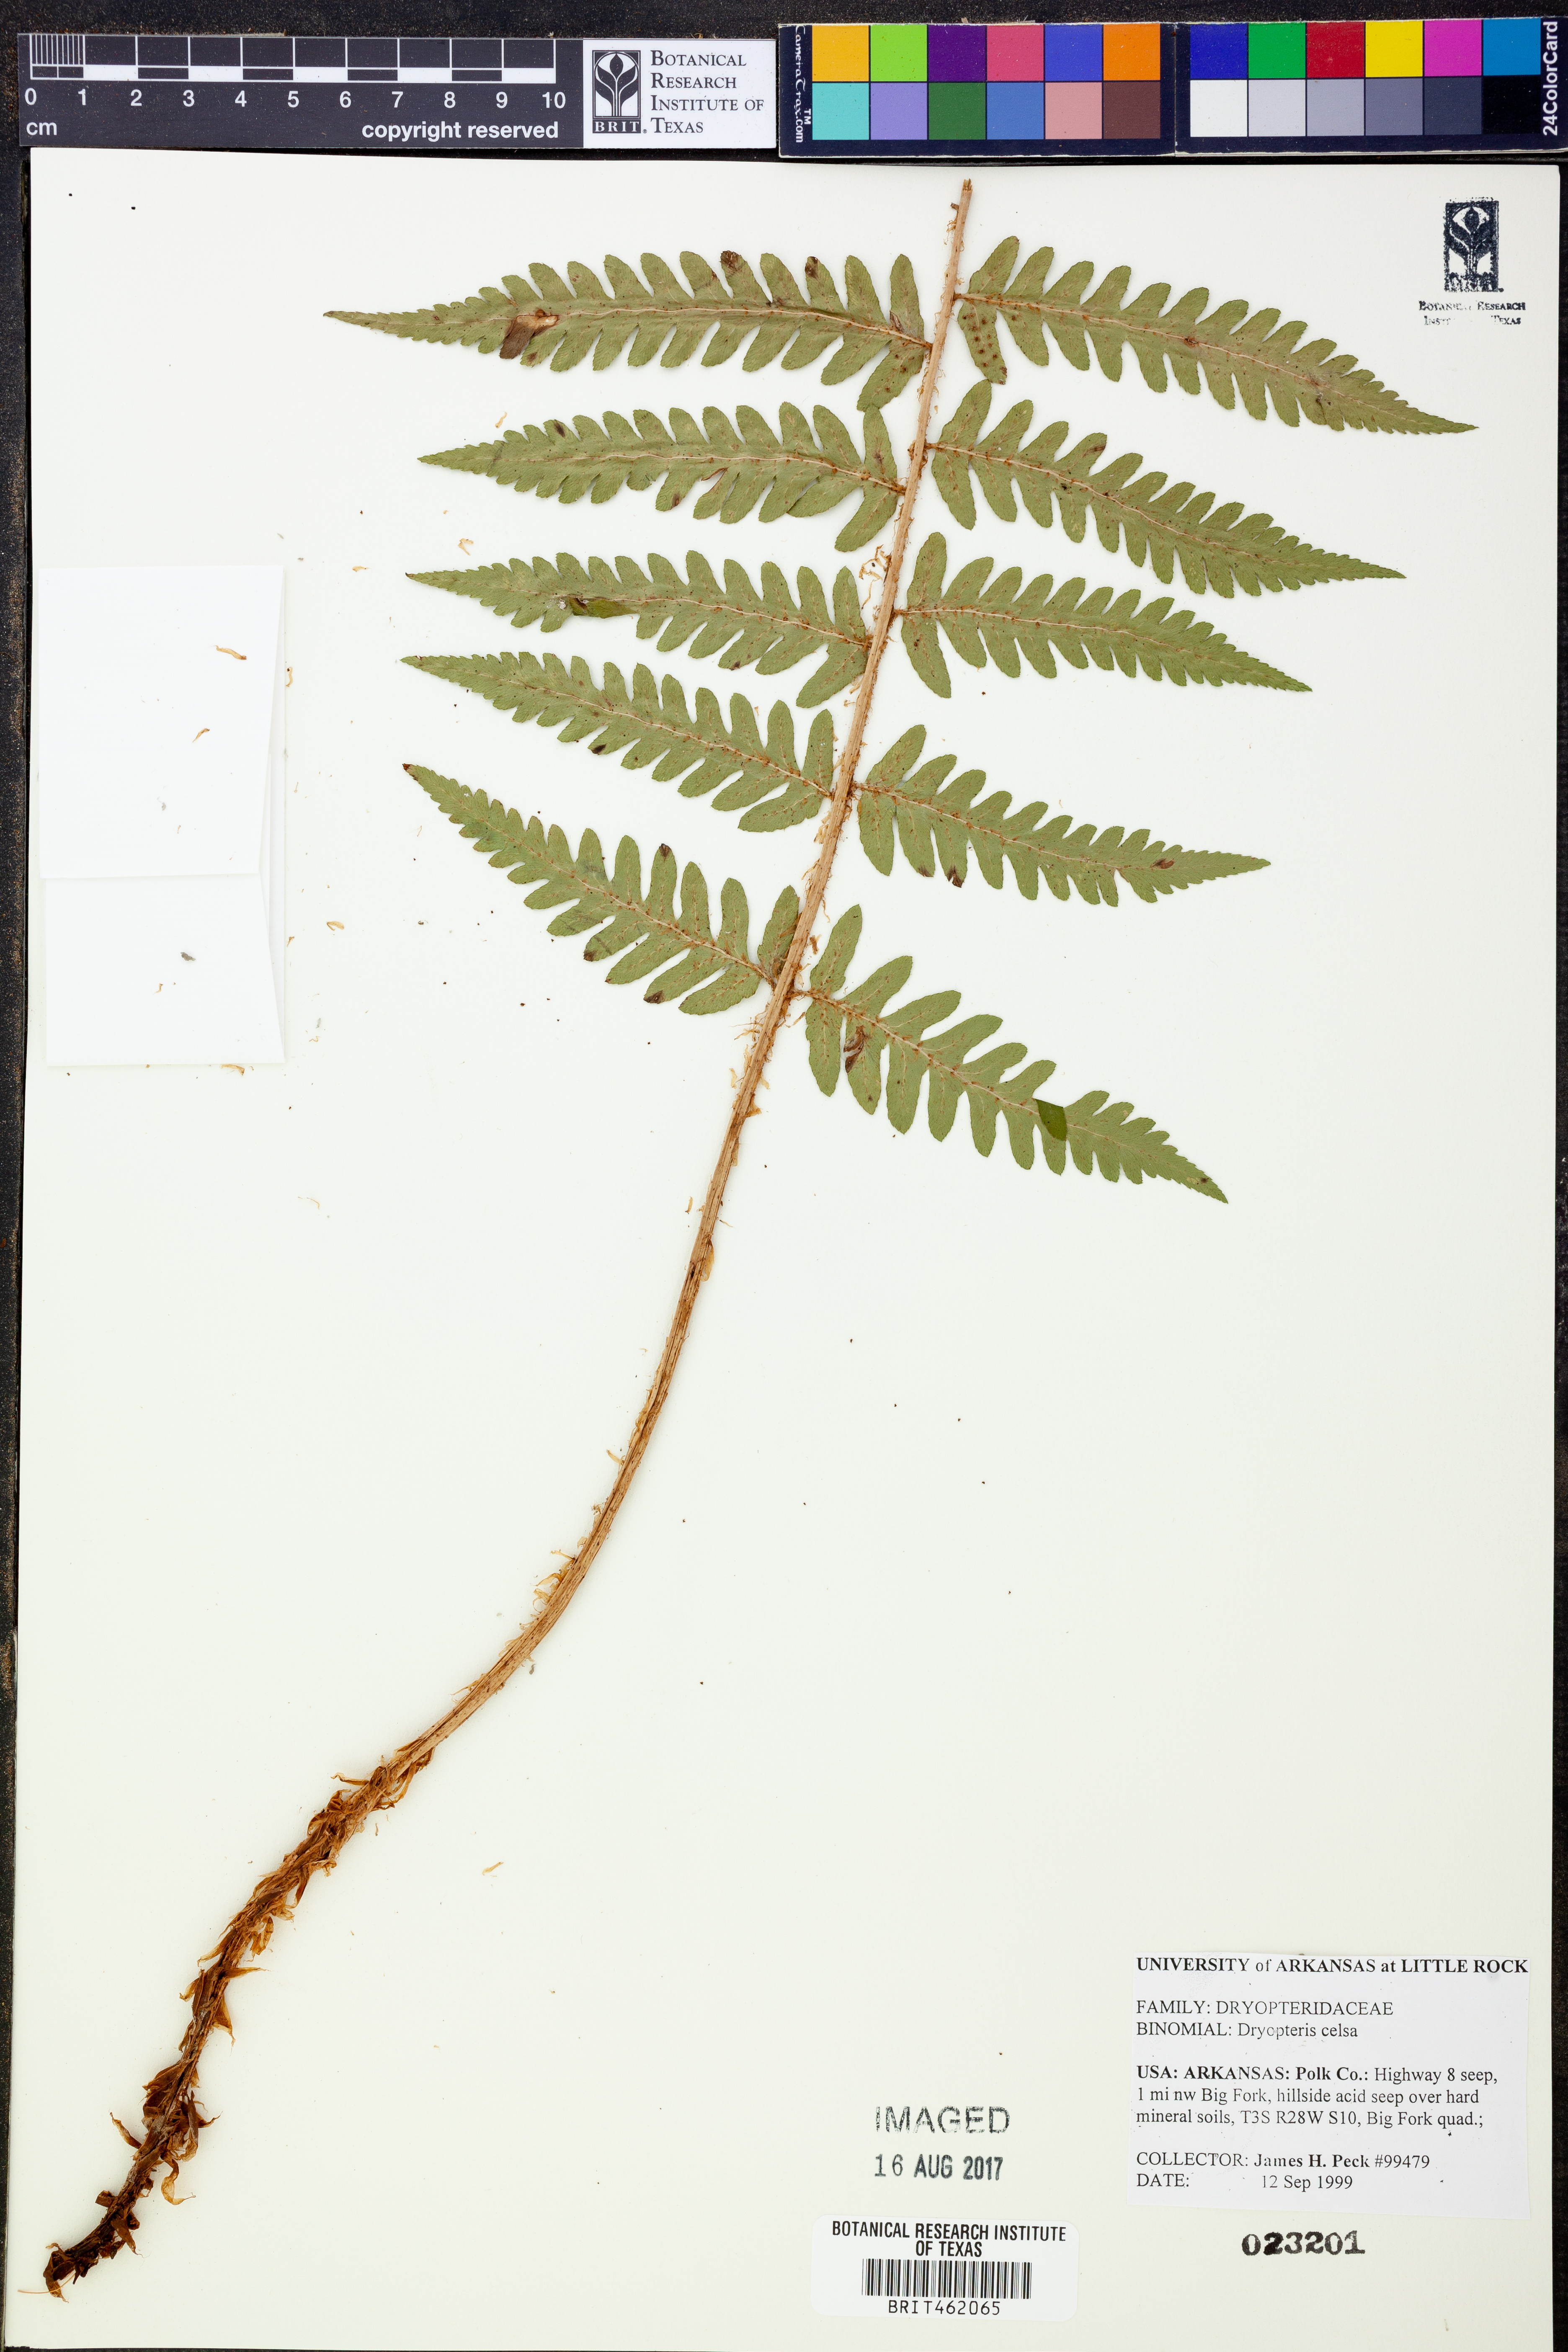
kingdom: Plantae
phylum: Tracheophyta
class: Polypodiopsida
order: Polypodiales
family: Dryopteridaceae
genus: Dryopteris
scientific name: Dryopteris celsa
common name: Log fern
